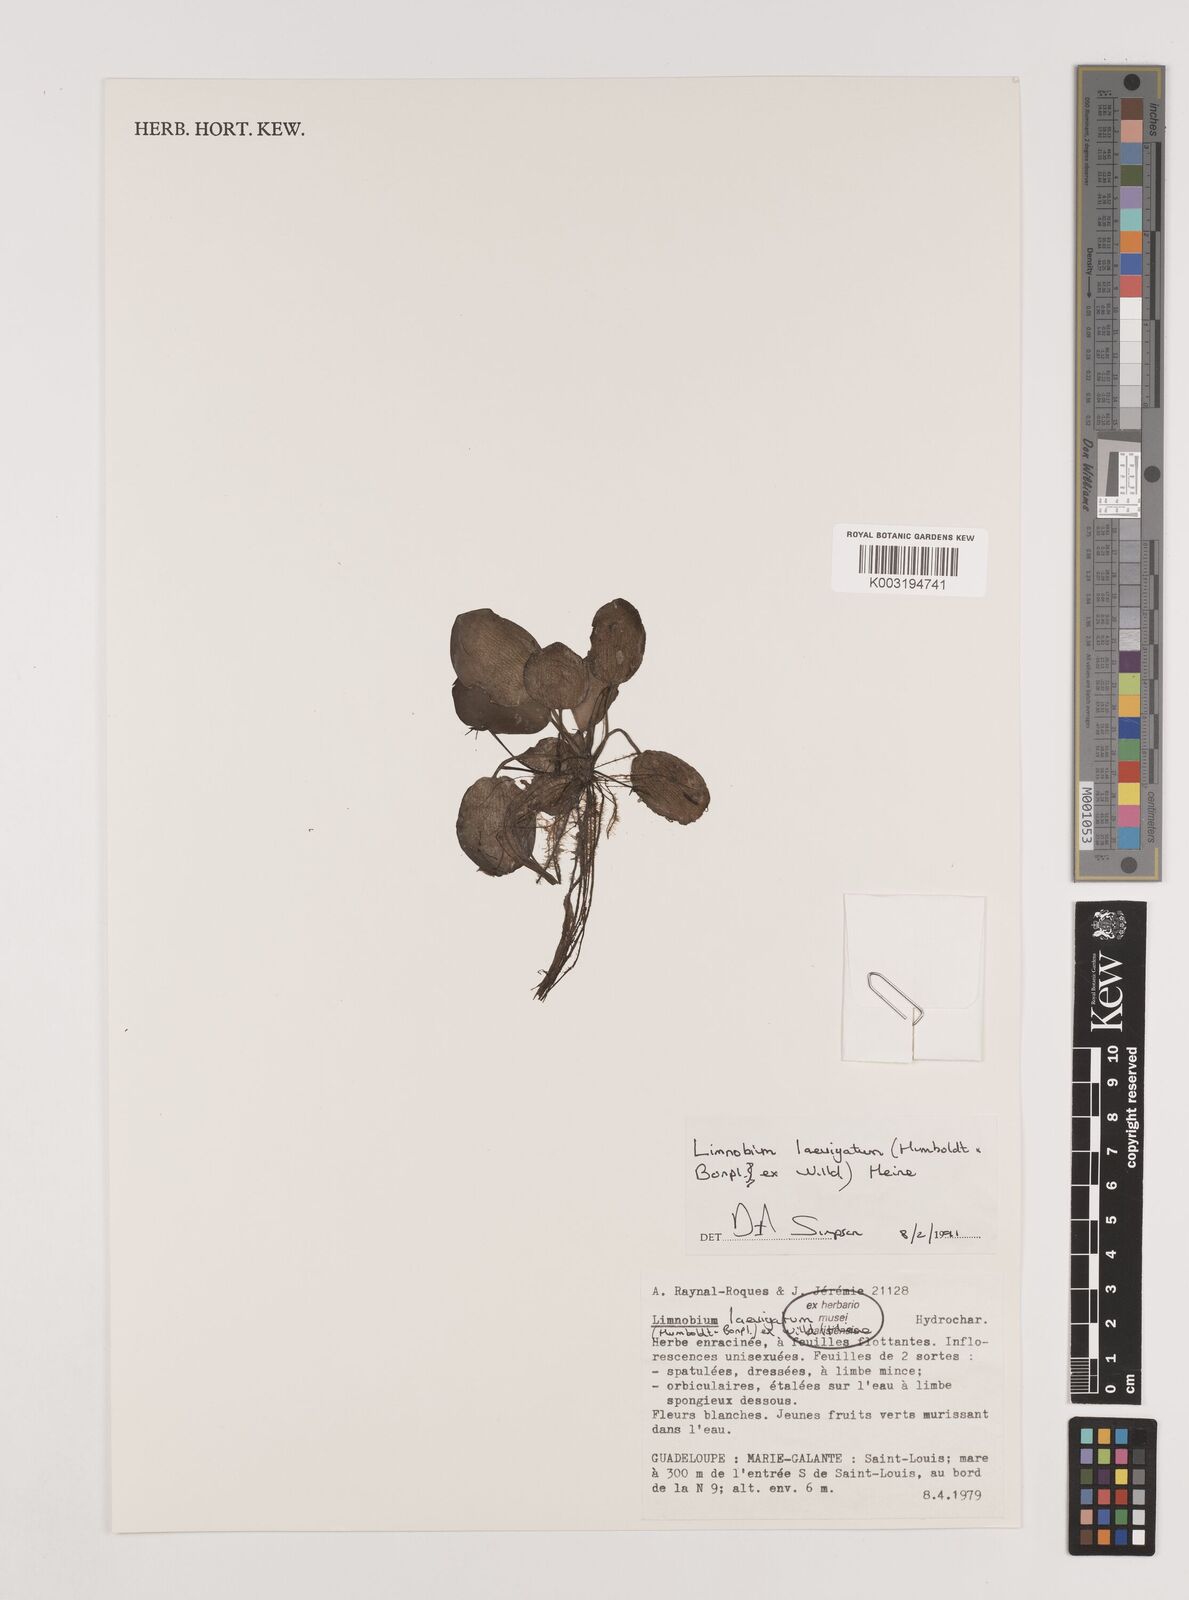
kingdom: Plantae
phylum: Tracheophyta
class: Liliopsida
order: Alismatales
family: Hydrocharitaceae
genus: Hydrocharis
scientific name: Hydrocharis laevigata
